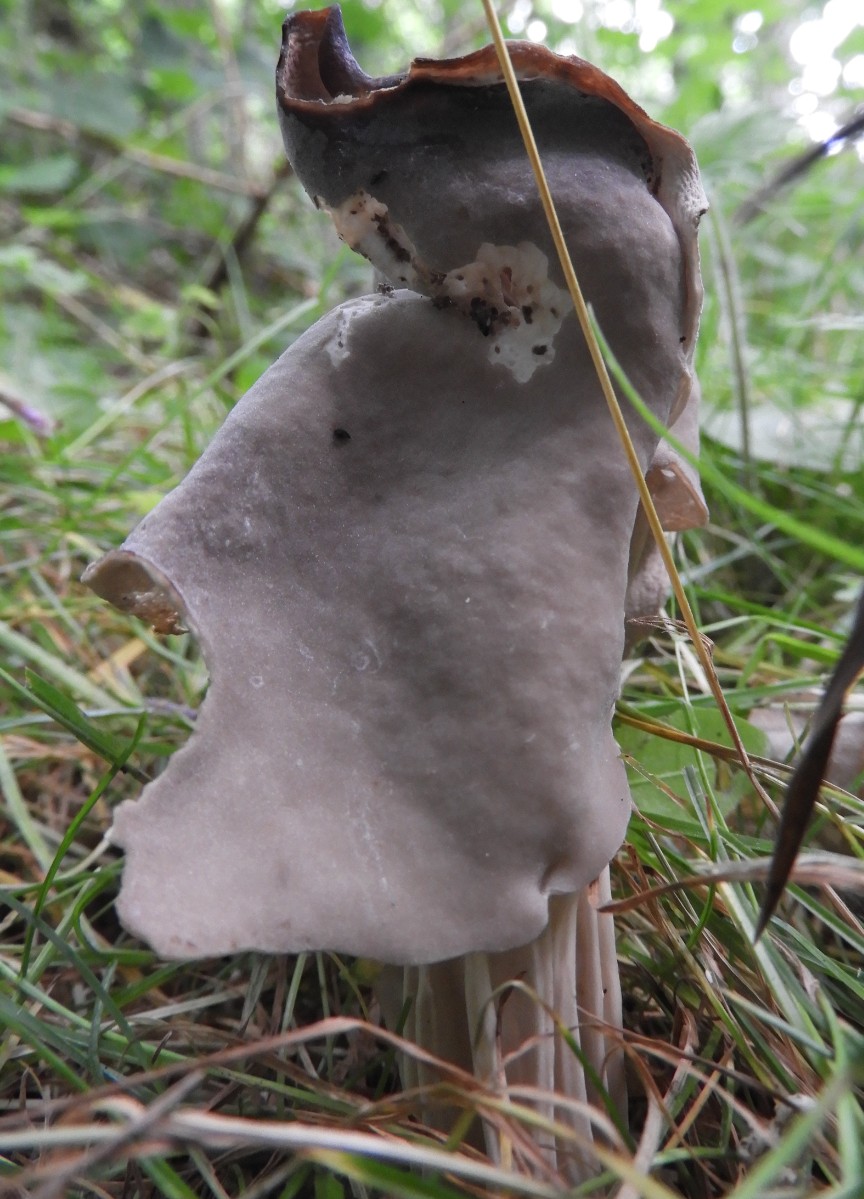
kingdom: Fungi
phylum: Ascomycota
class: Pezizomycetes
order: Pezizales
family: Helvellaceae
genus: Helvella
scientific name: Helvella lacunosa
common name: grubet foldhat
